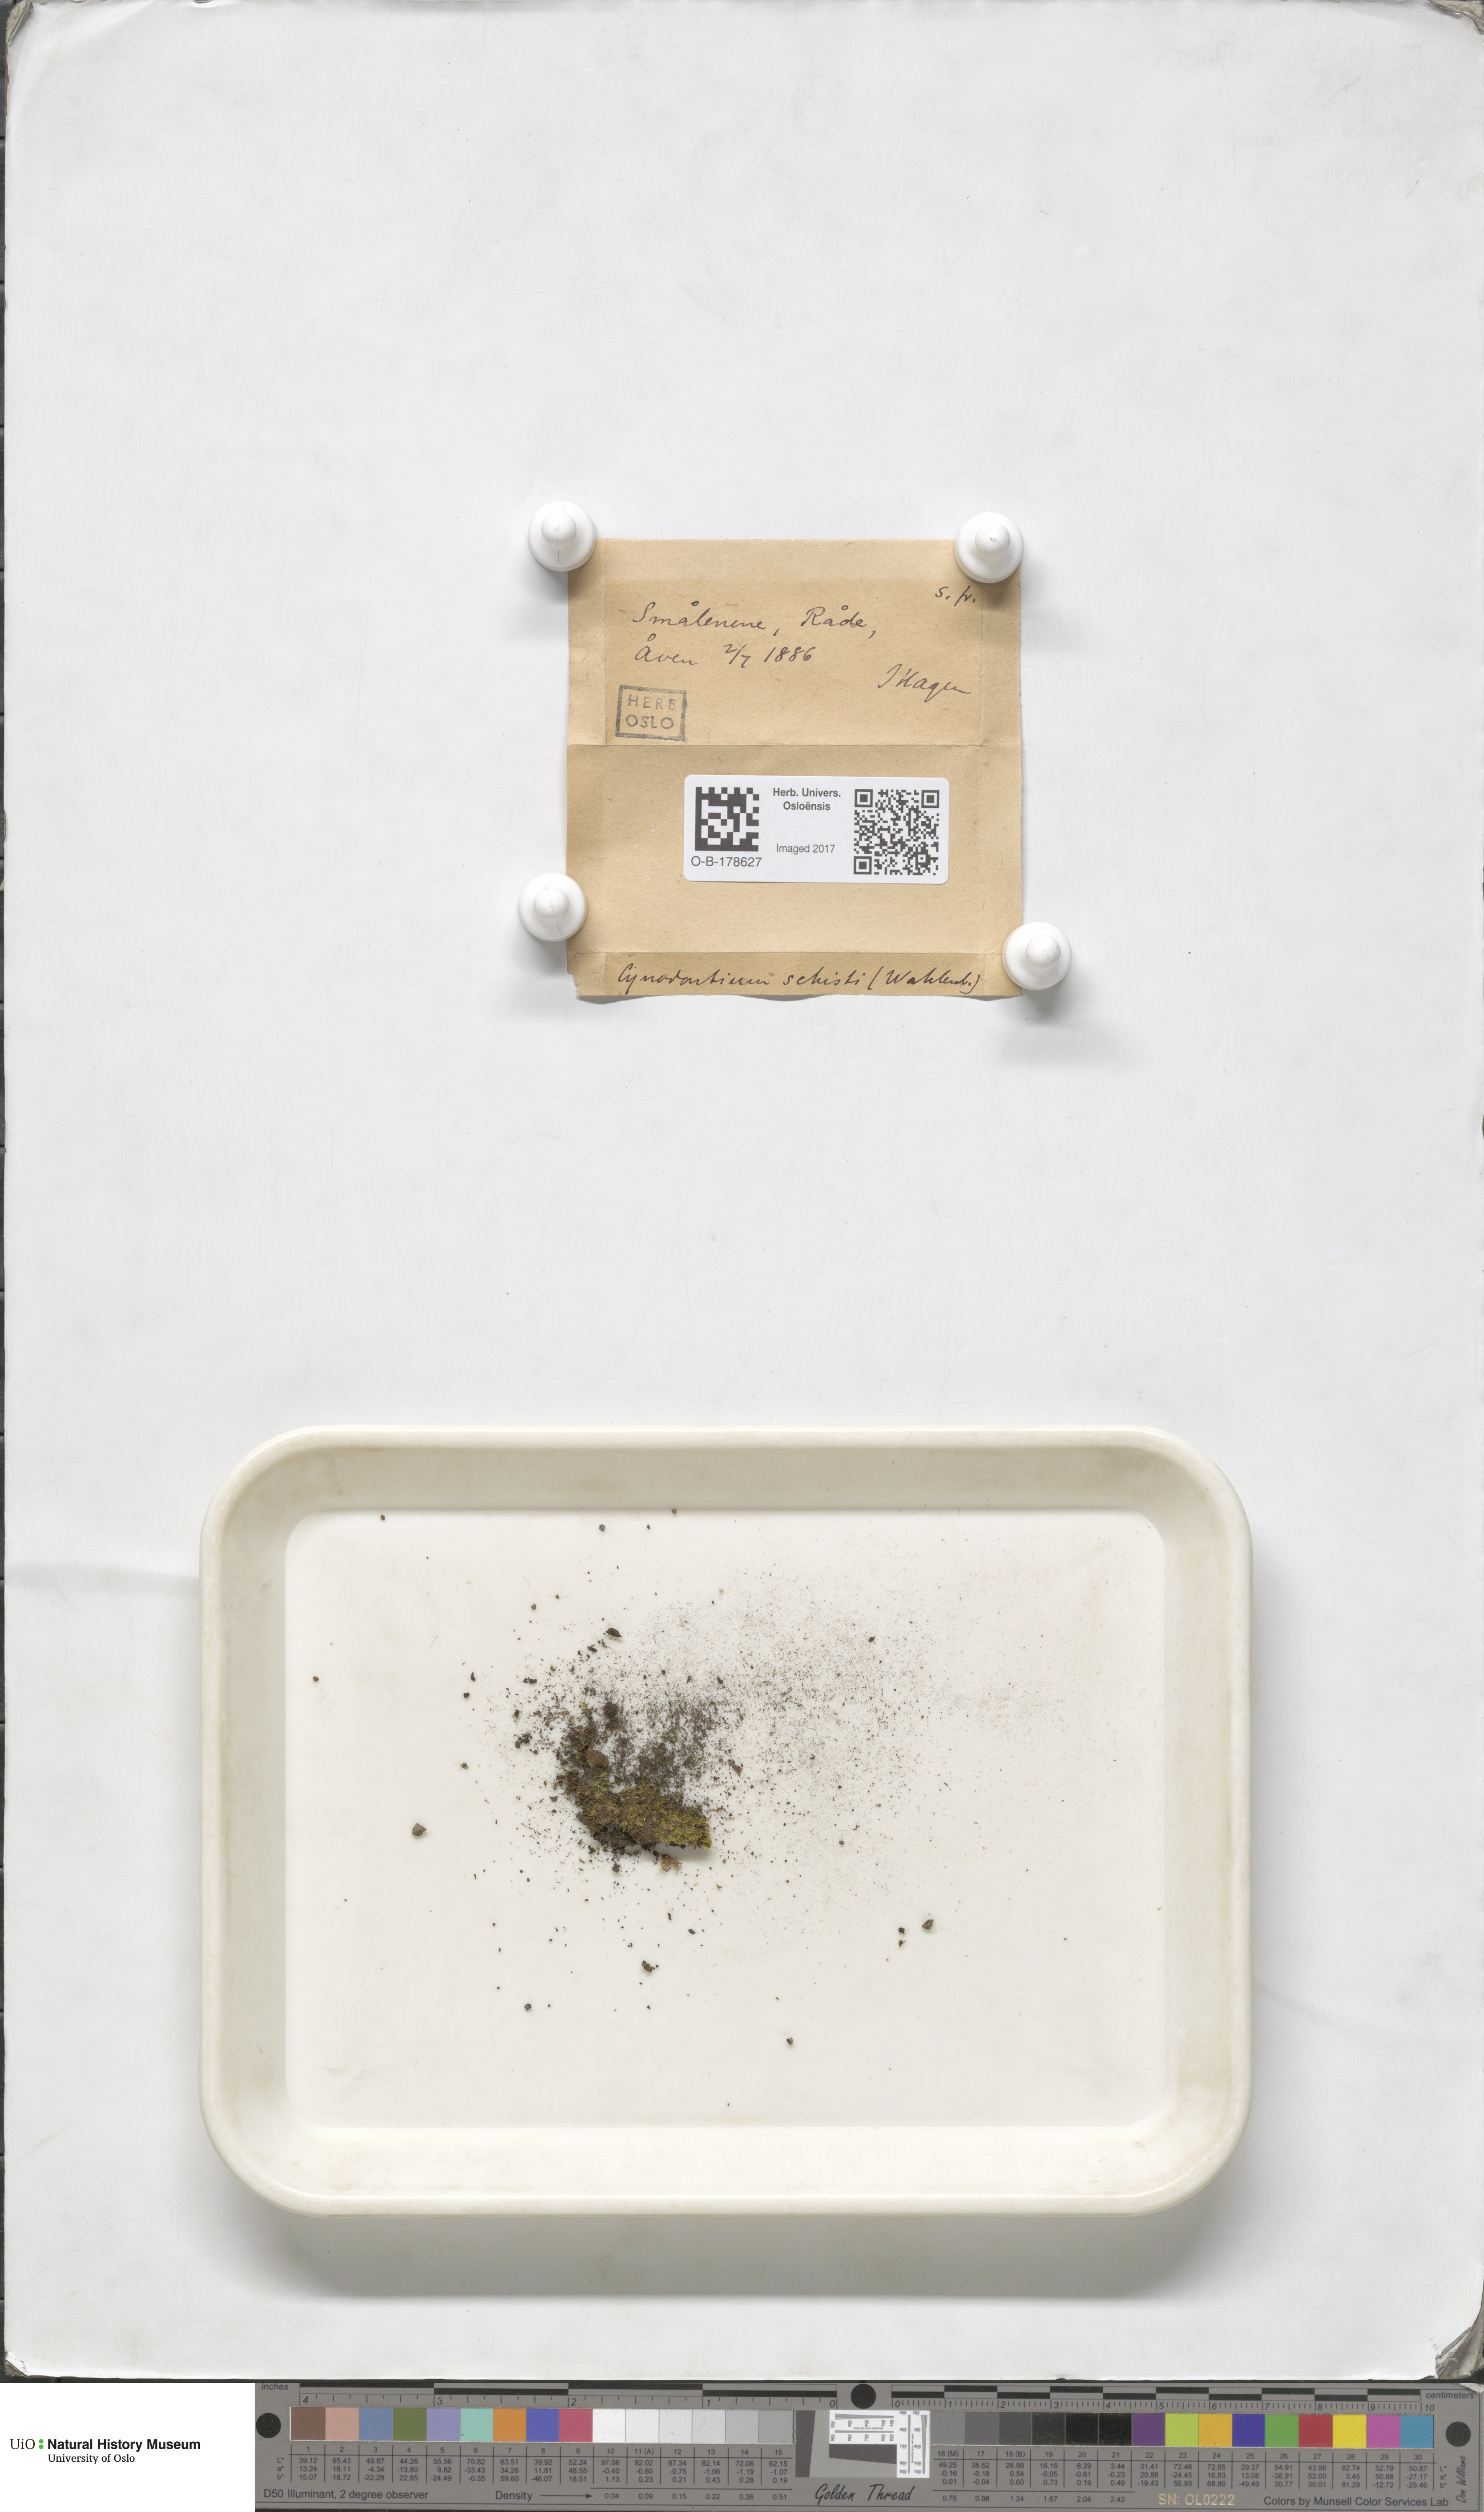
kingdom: Plantae
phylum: Bryophyta
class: Bryopsida
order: Dicranales
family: Rhabdoweisiaceae
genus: Cnestrum
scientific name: Cnestrum schisti
